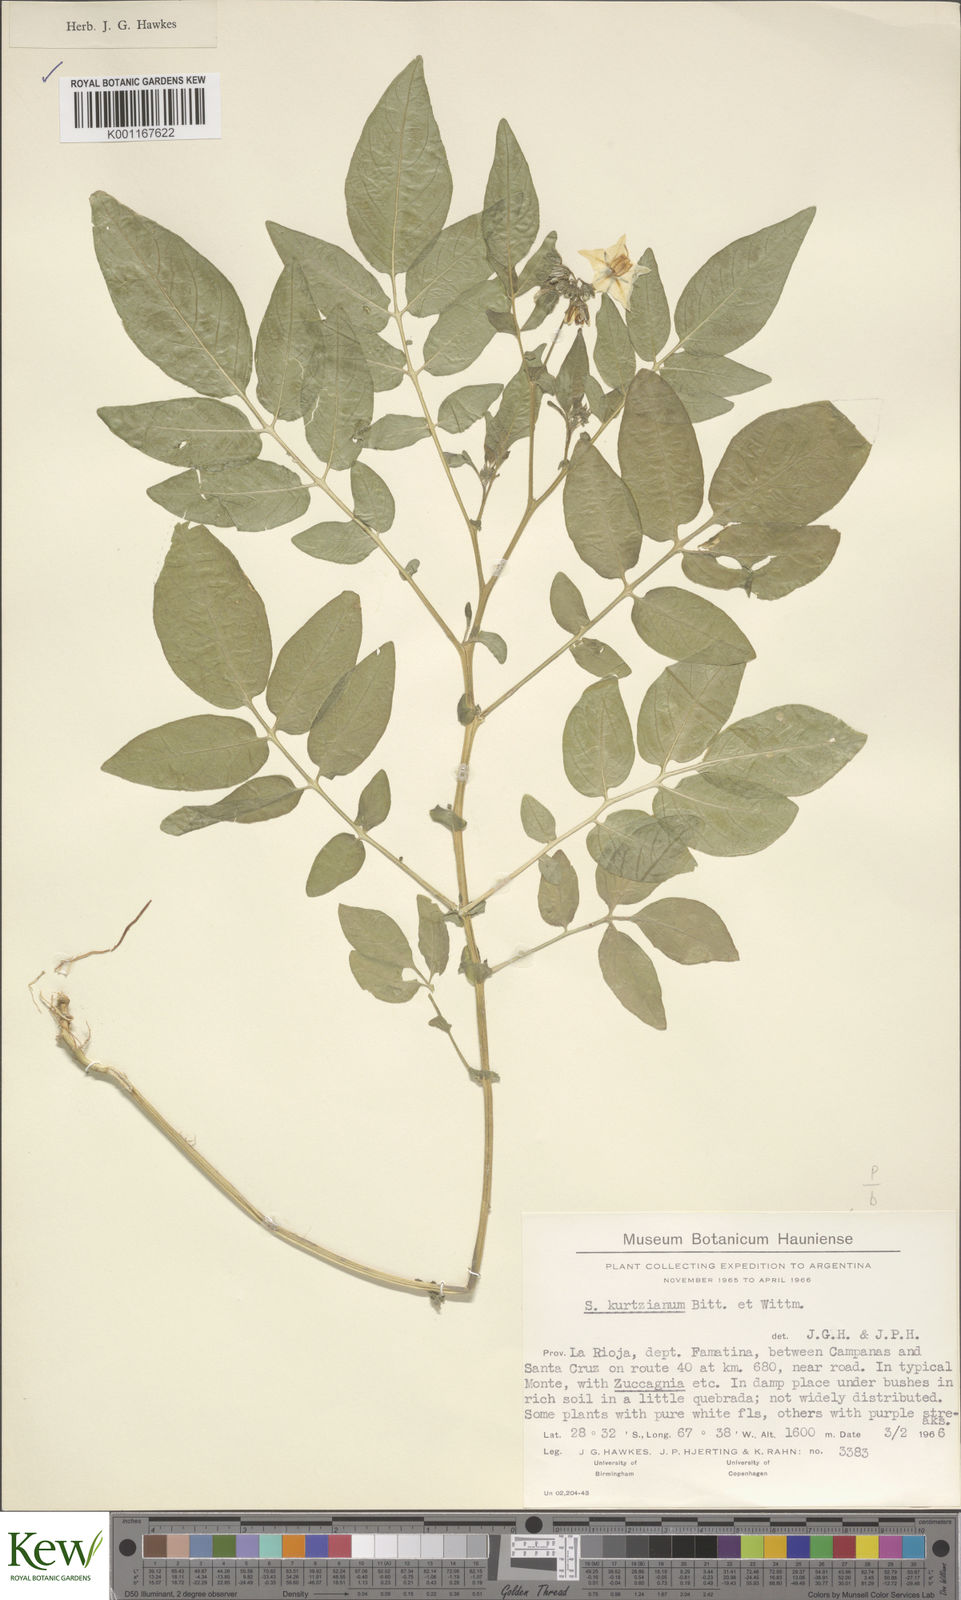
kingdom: Plantae
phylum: Tracheophyta
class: Magnoliopsida
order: Solanales
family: Solanaceae
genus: Solanum
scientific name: Solanum kurtzianum
